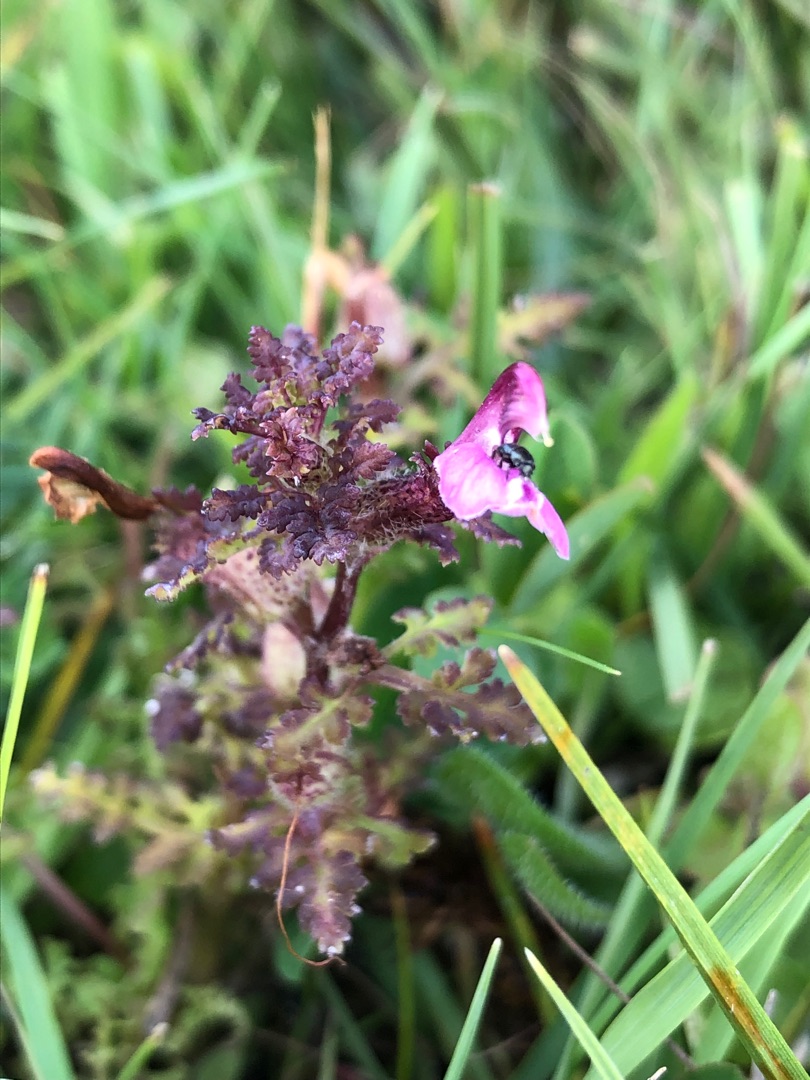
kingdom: Plantae
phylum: Tracheophyta
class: Magnoliopsida
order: Lamiales
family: Orobanchaceae
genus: Pedicularis
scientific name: Pedicularis palustris
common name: Eng-troldurt
